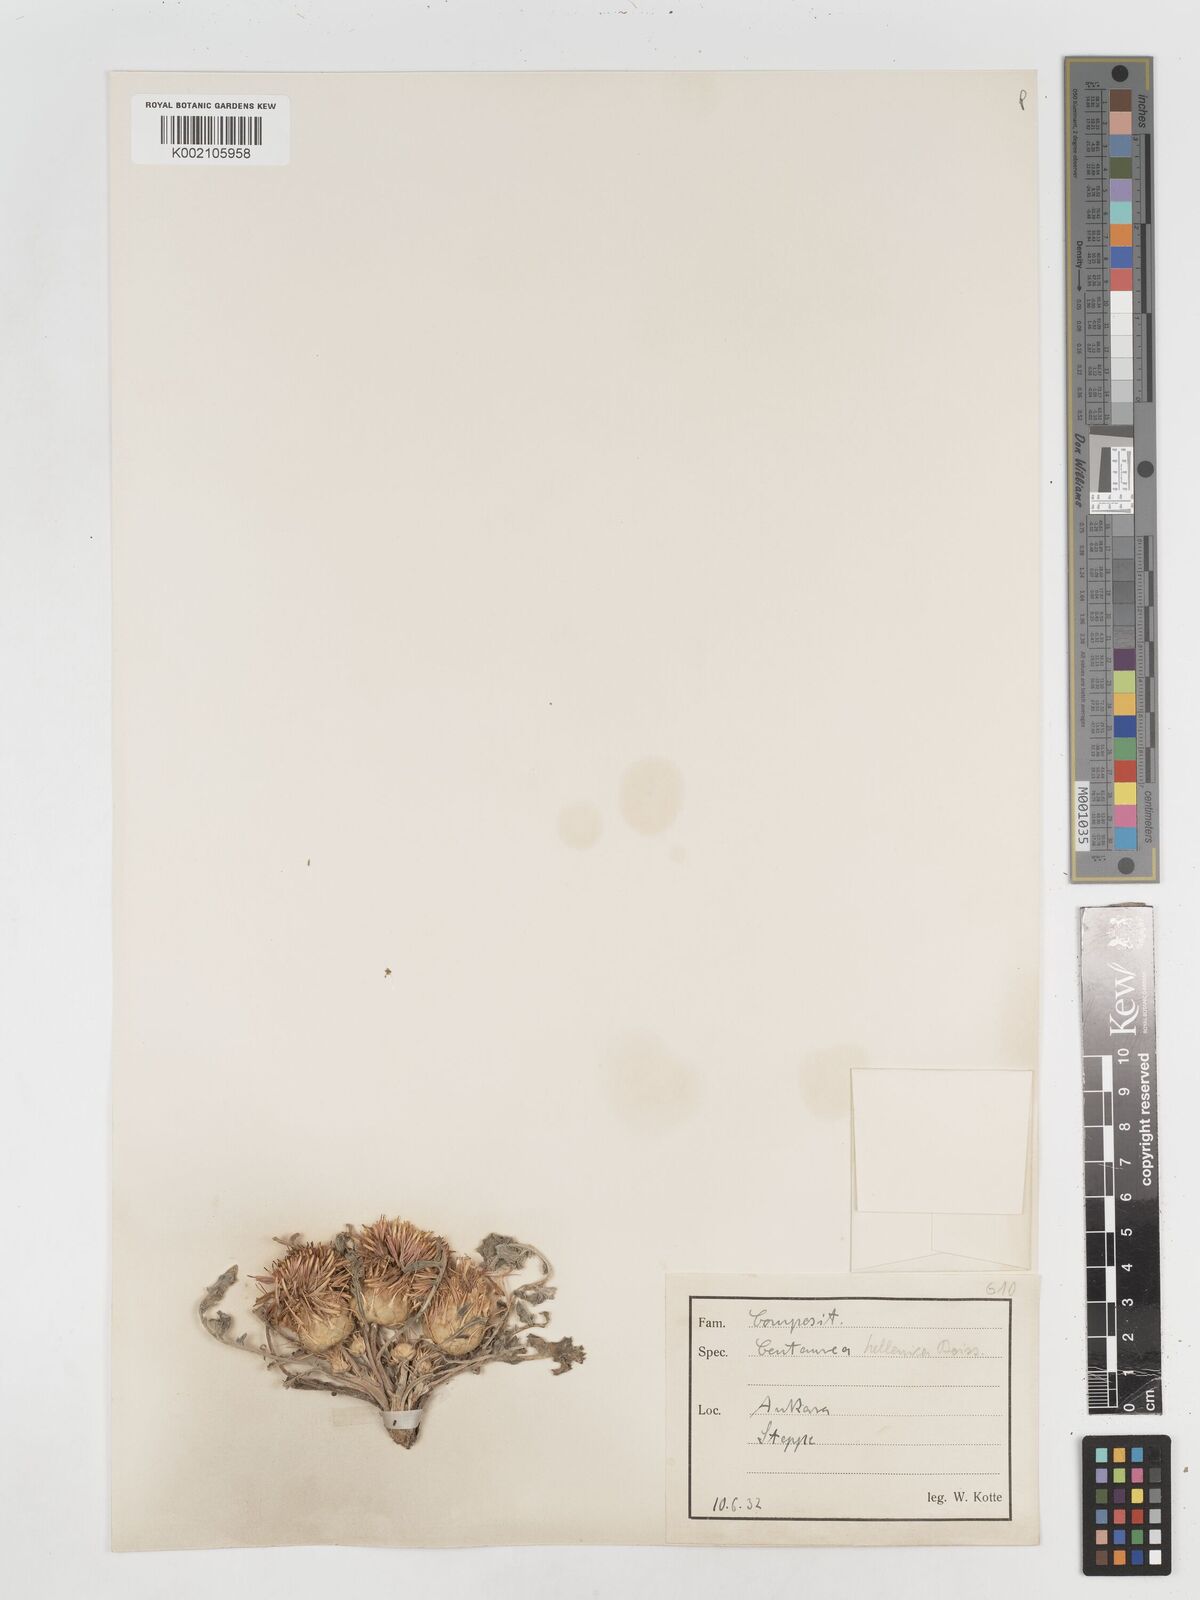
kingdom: Plantae
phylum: Tracheophyta
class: Magnoliopsida
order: Asterales
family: Asteraceae
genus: Centaurea
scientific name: Centaurea
